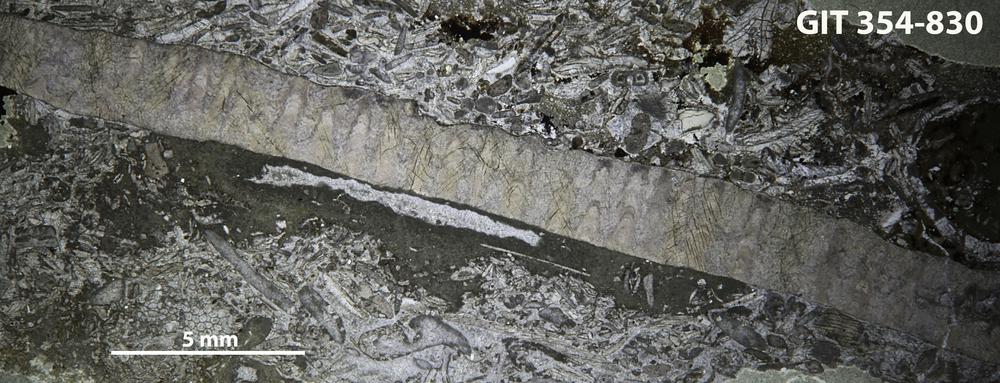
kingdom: Animalia
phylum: Porifera
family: Lophiostromatidae
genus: Lophiostroma
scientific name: Lophiostroma
